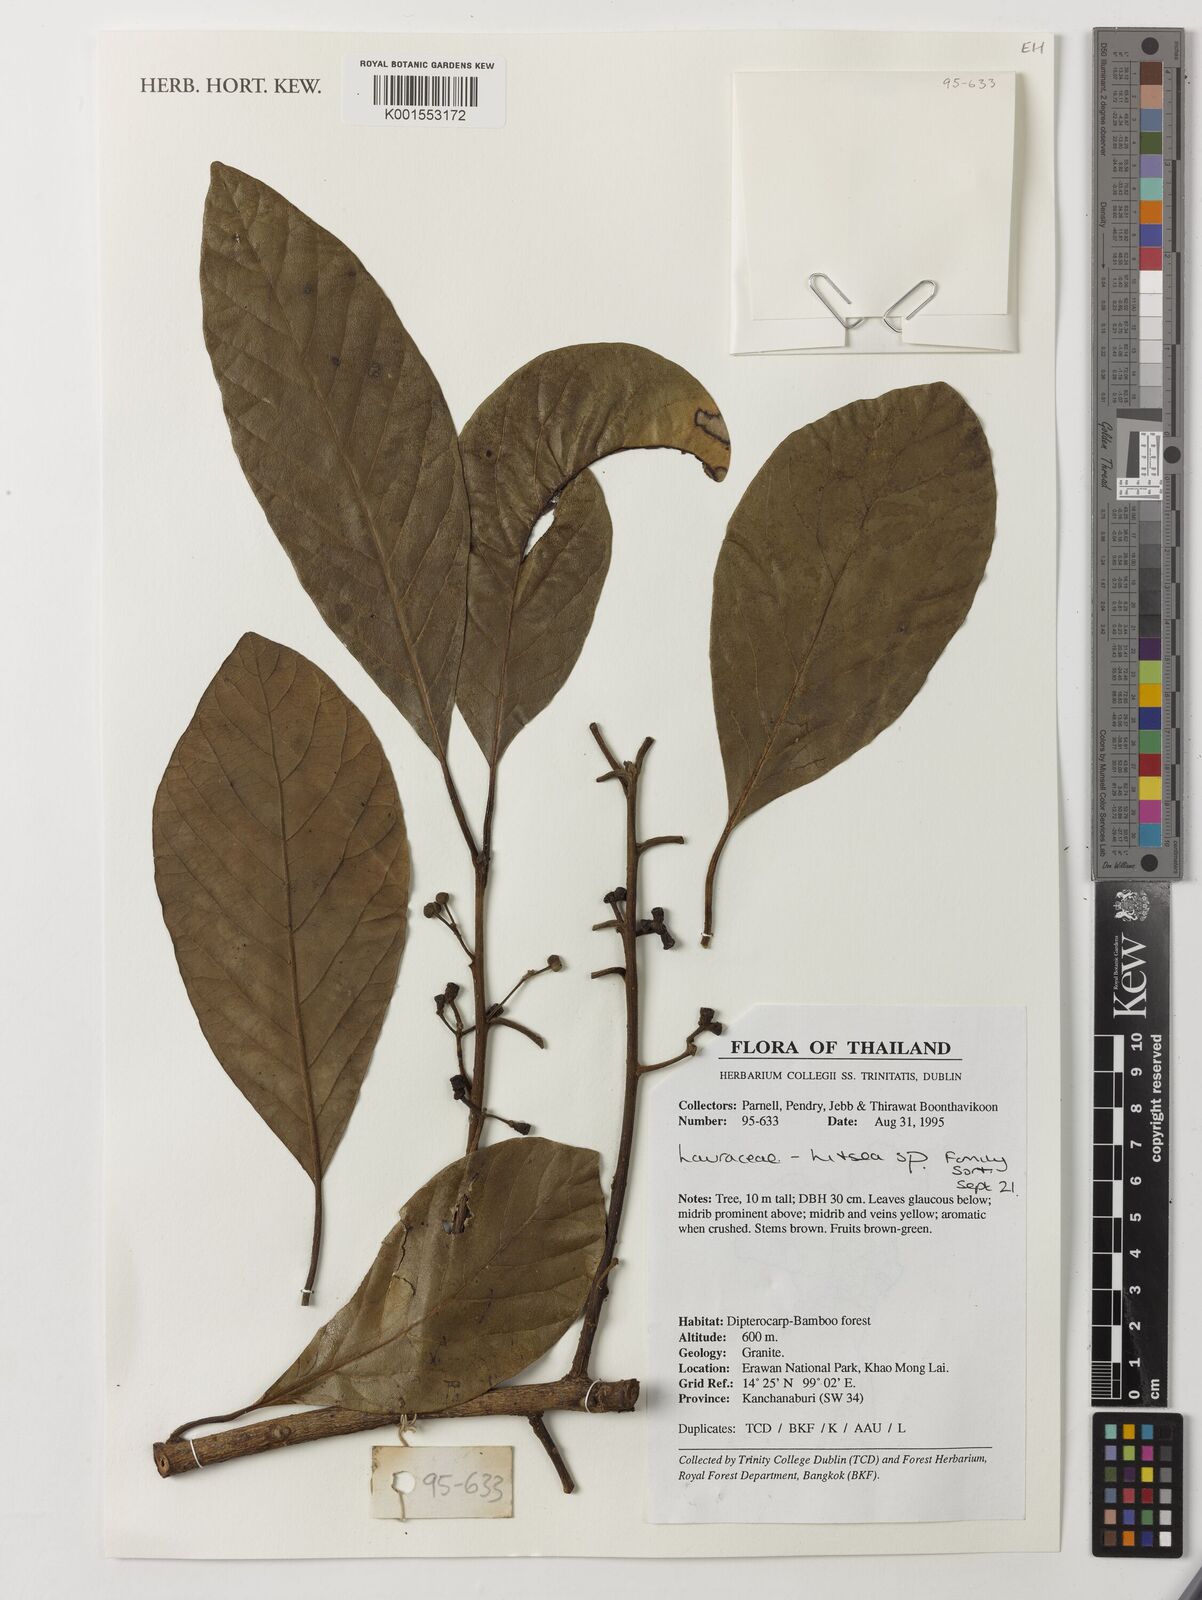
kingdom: Plantae
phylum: Tracheophyta
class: Magnoliopsida
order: Laurales
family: Lauraceae
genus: Litsea
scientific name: Litsea
